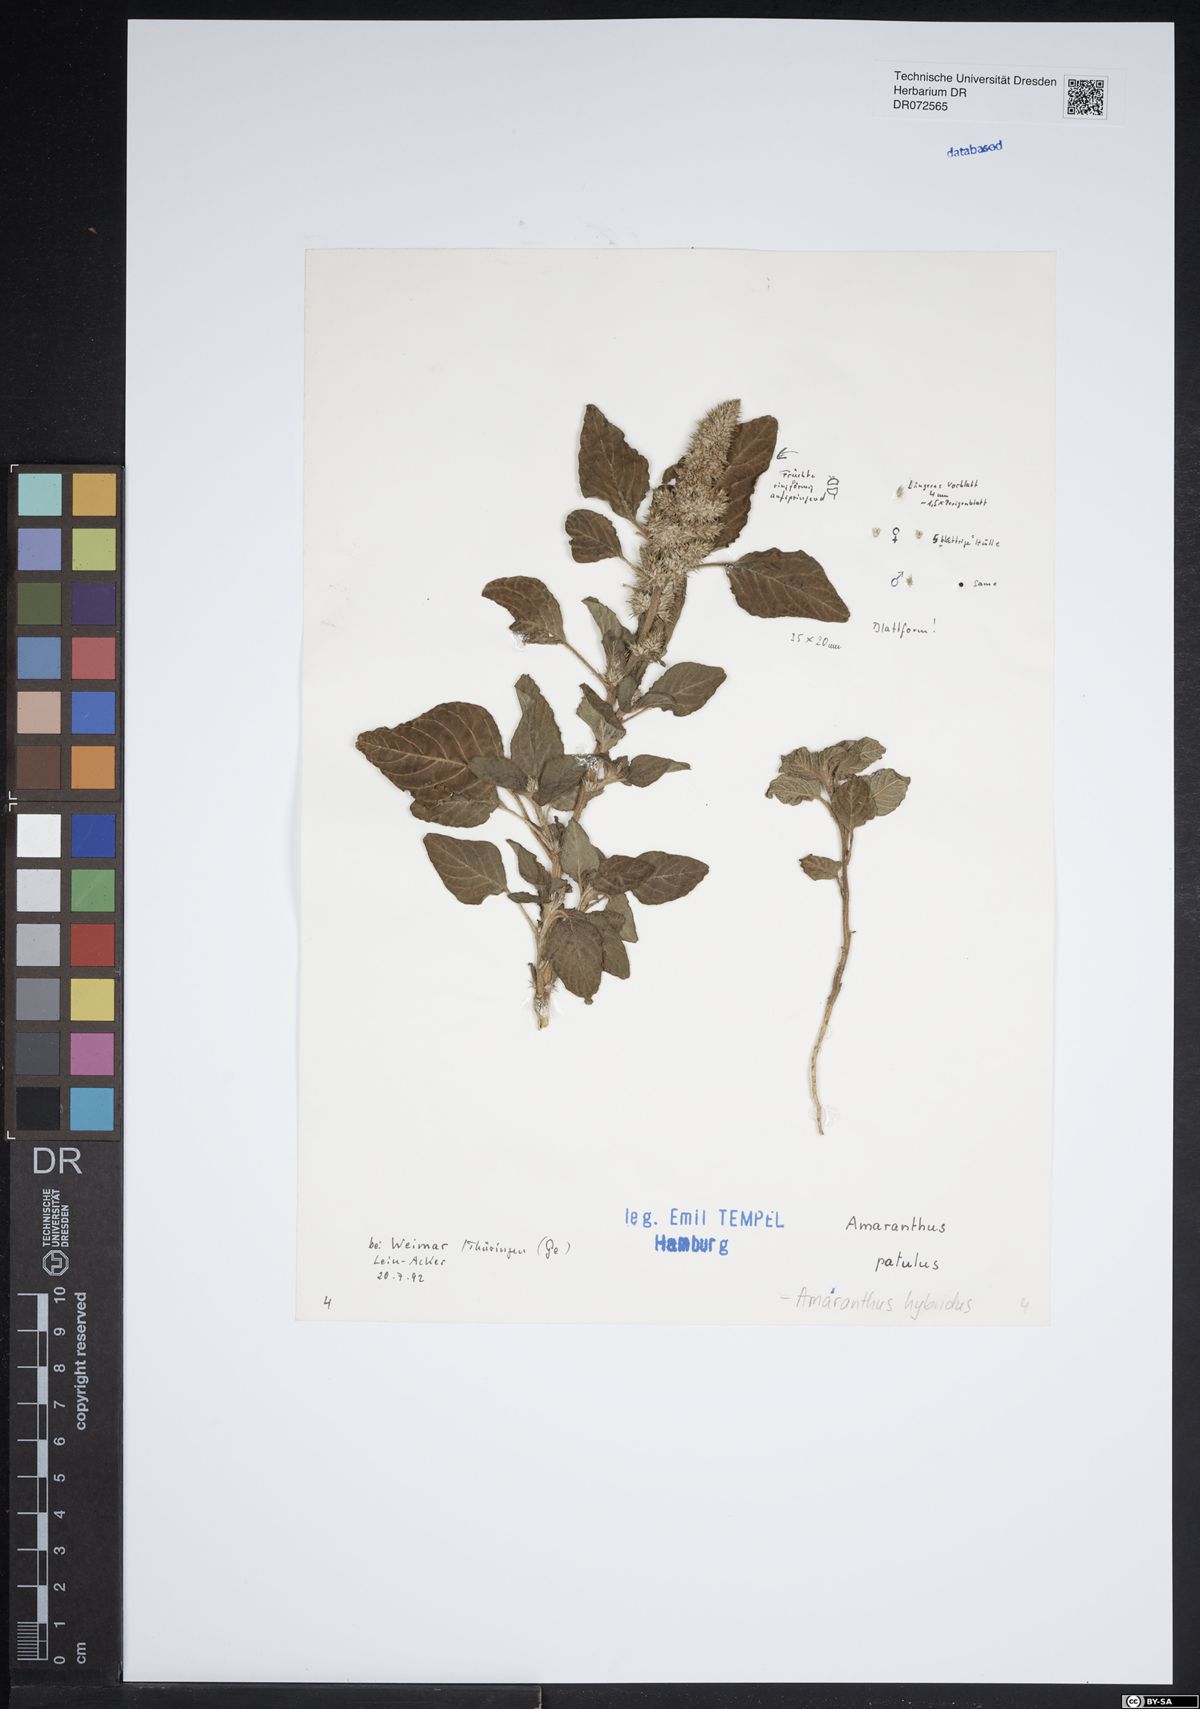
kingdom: Plantae
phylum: Tracheophyta
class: Magnoliopsida
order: Caryophyllales
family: Amaranthaceae
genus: Amaranthus
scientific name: Amaranthus hybridus
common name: Green amaranth
